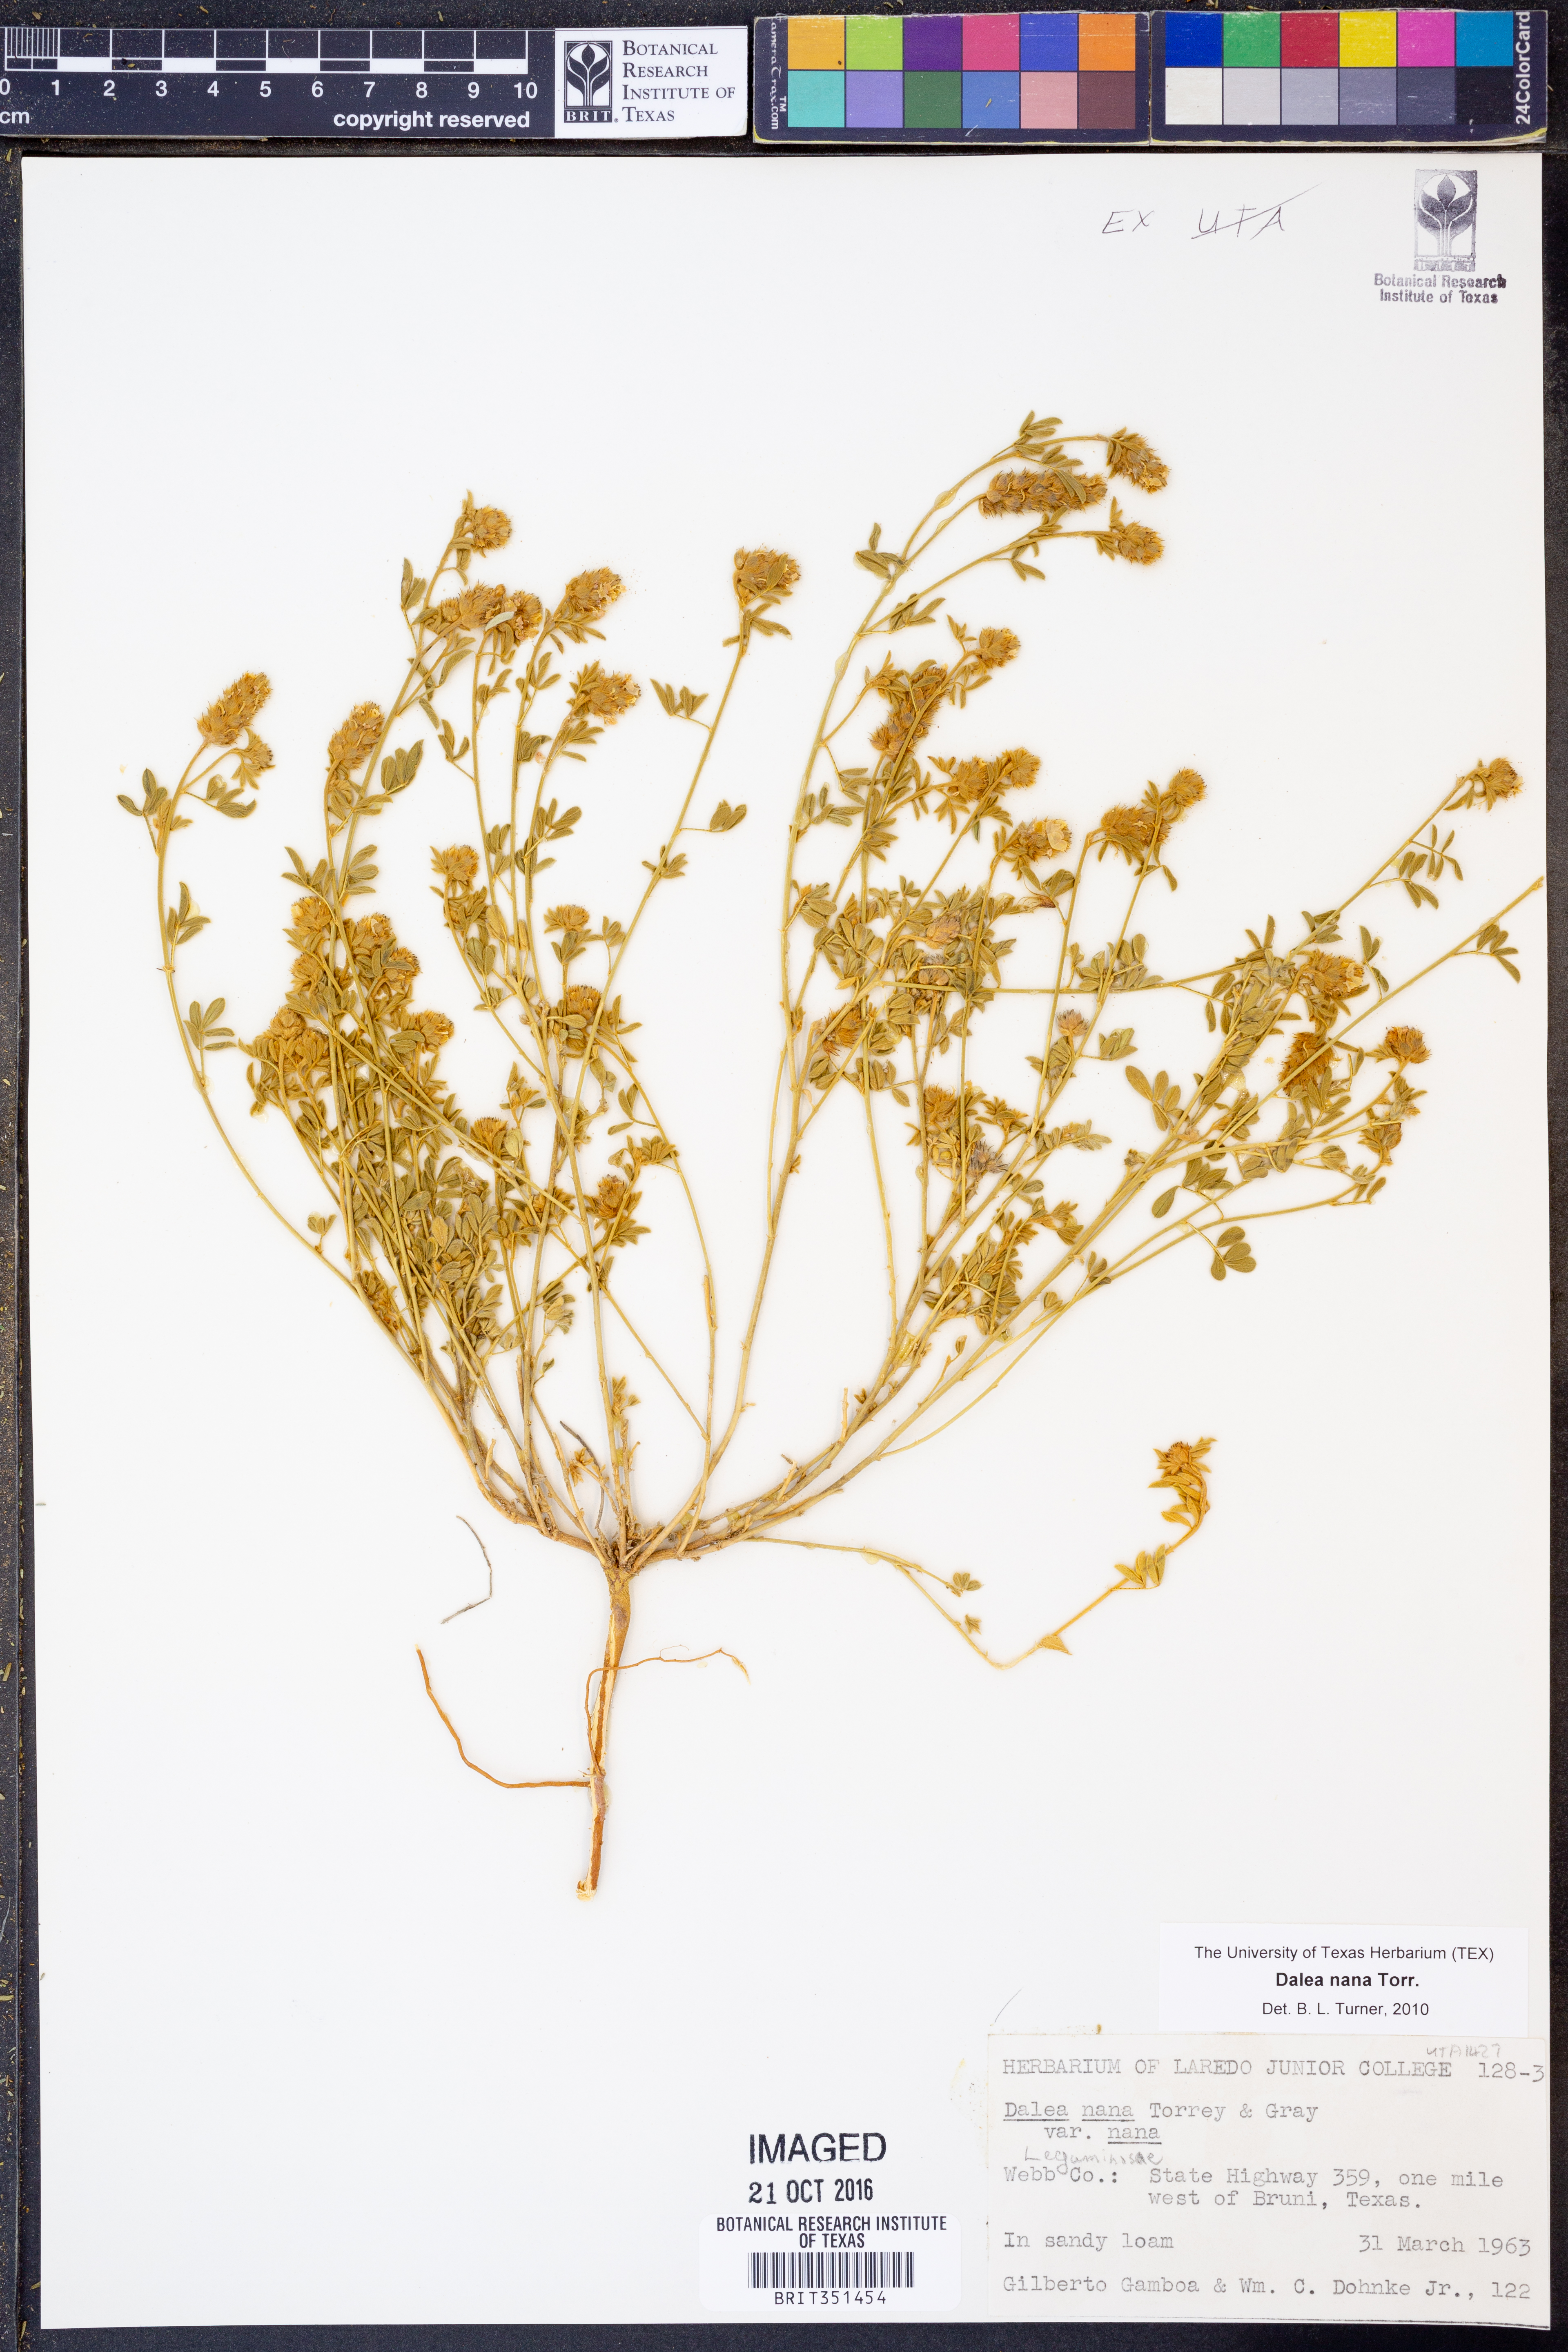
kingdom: Plantae
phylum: Tracheophyta
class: Magnoliopsida
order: Fabales
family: Fabaceae
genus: Dalea
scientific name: Dalea nana
